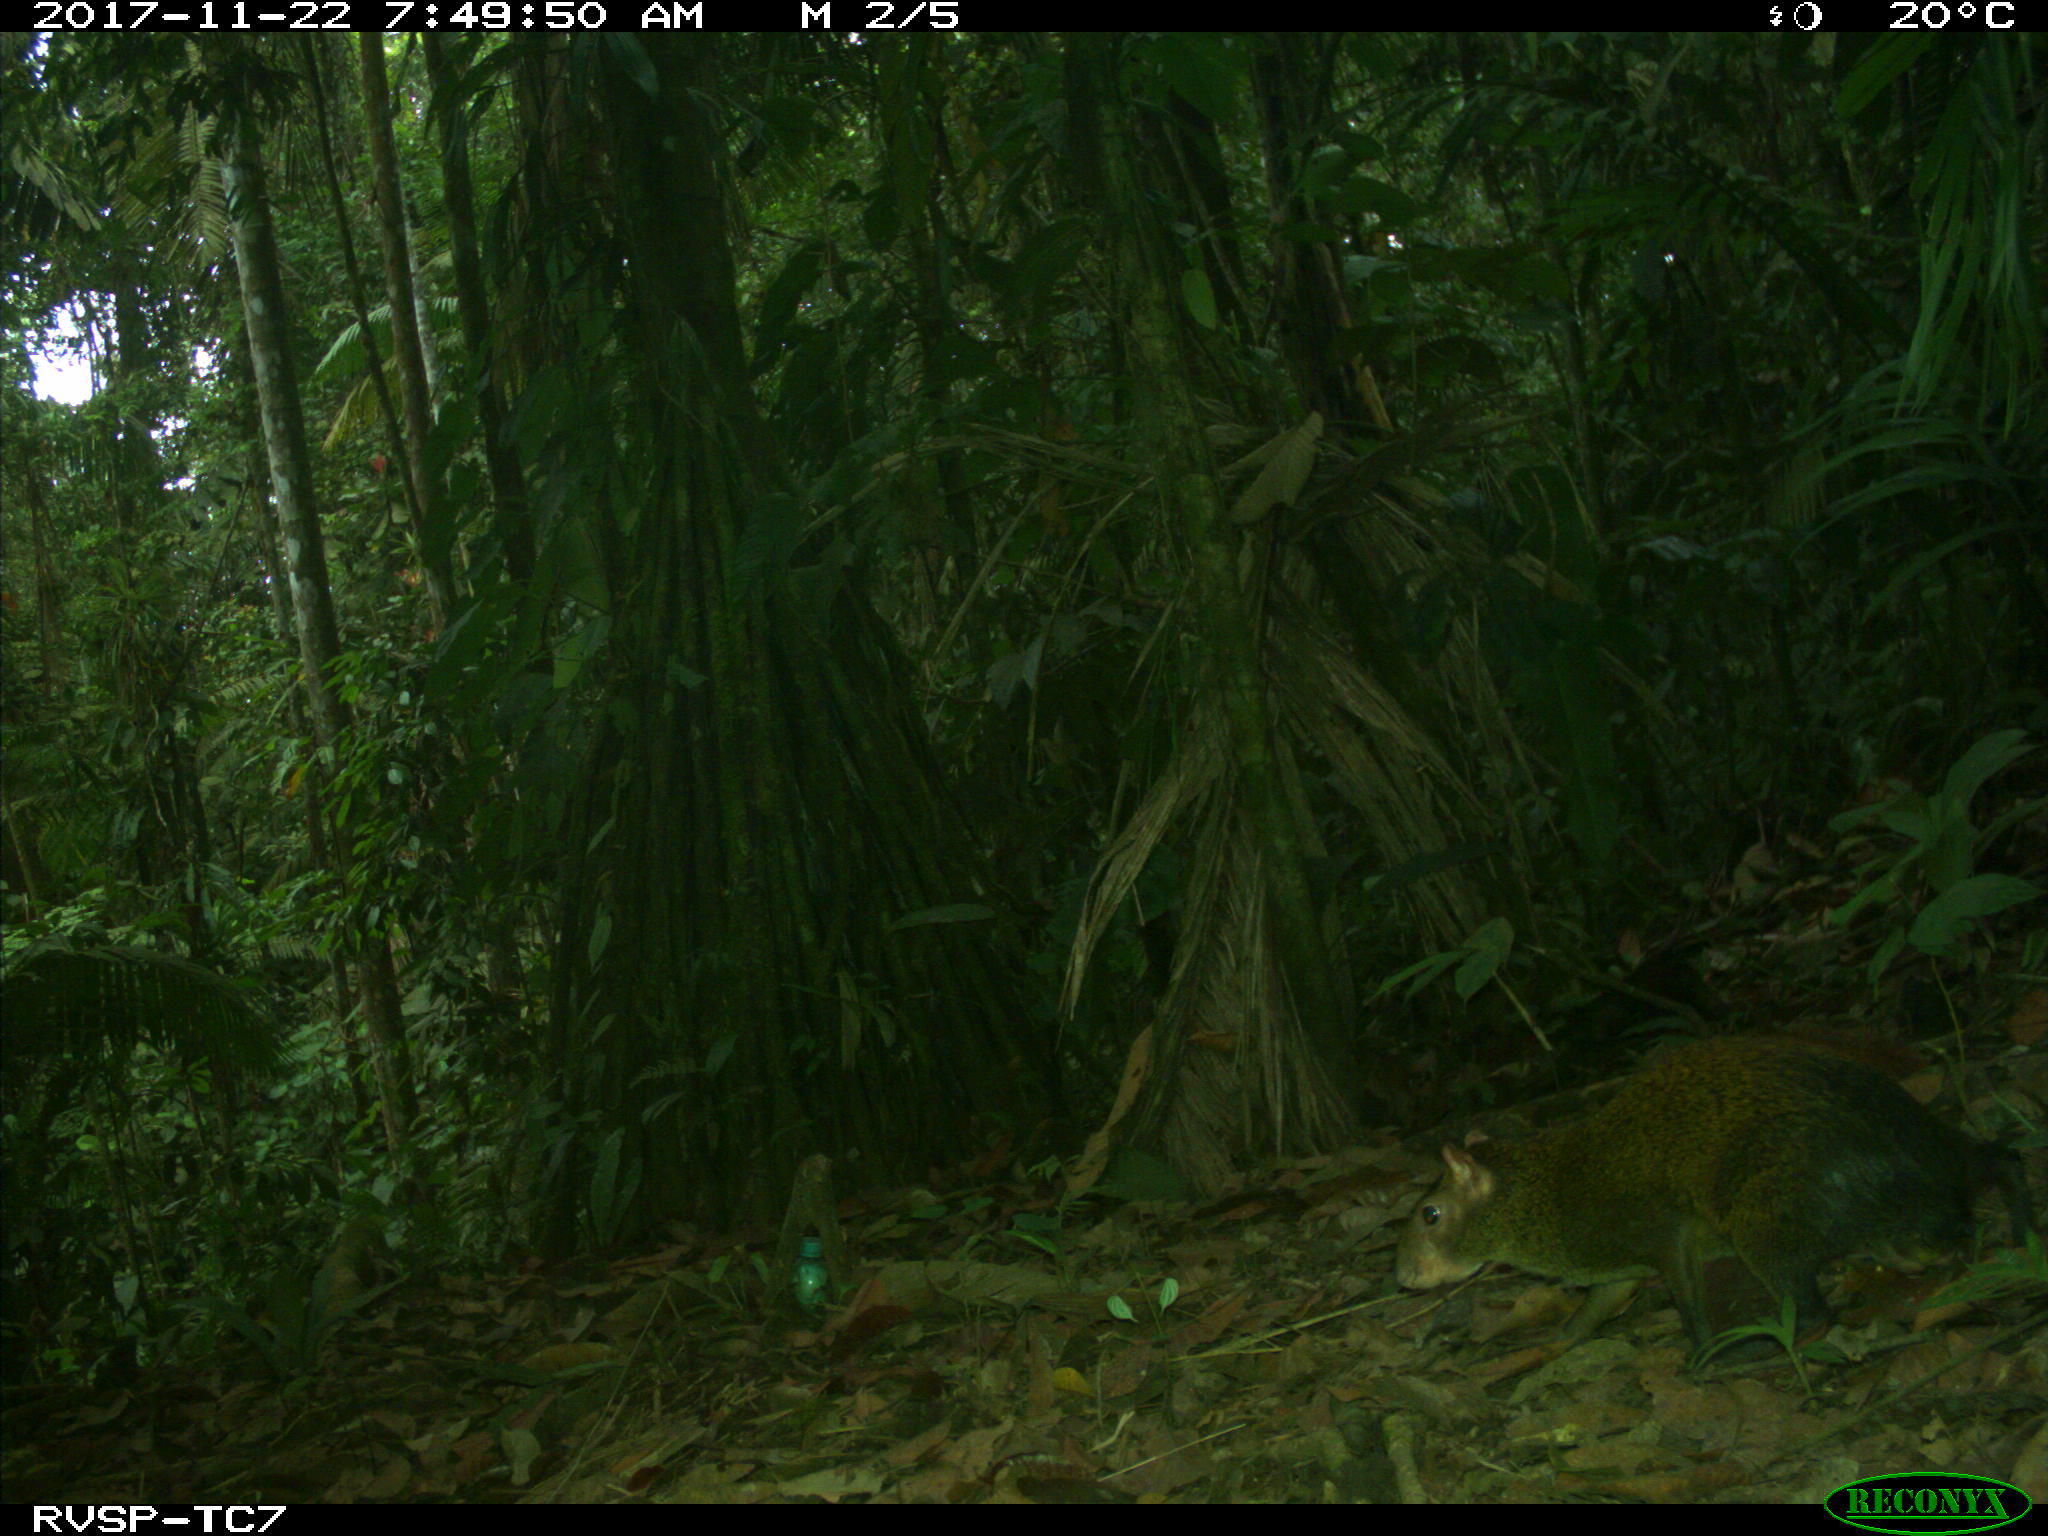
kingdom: Animalia
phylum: Chordata
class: Mammalia
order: Rodentia
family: Dasyproctidae
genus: Dasyprocta
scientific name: Dasyprocta punctata
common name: Central american agouti
